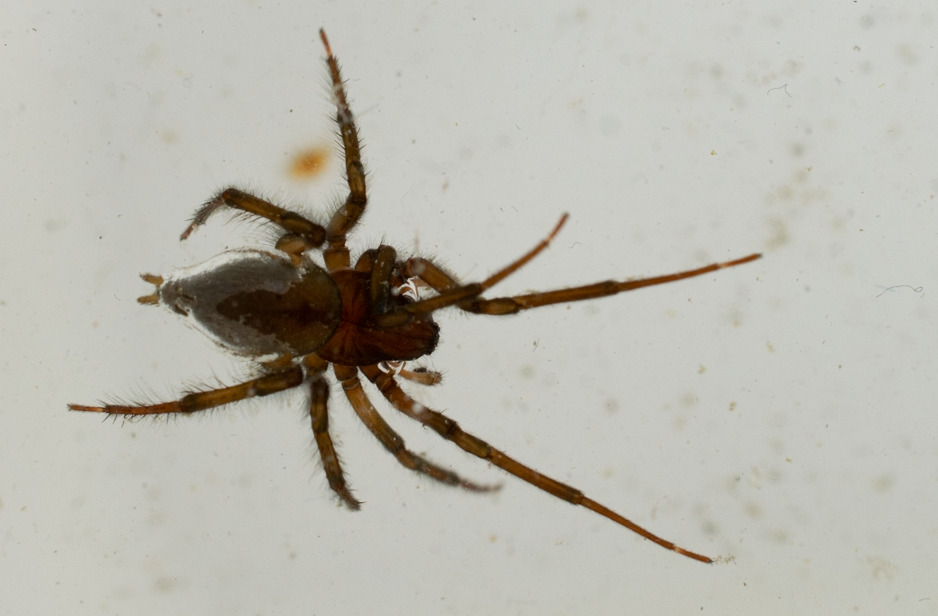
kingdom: Animalia
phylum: Arthropoda
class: Arachnida
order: Araneae
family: Dictynidae
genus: Argyroneta
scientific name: Argyroneta aquatica
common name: Vandedderkop
